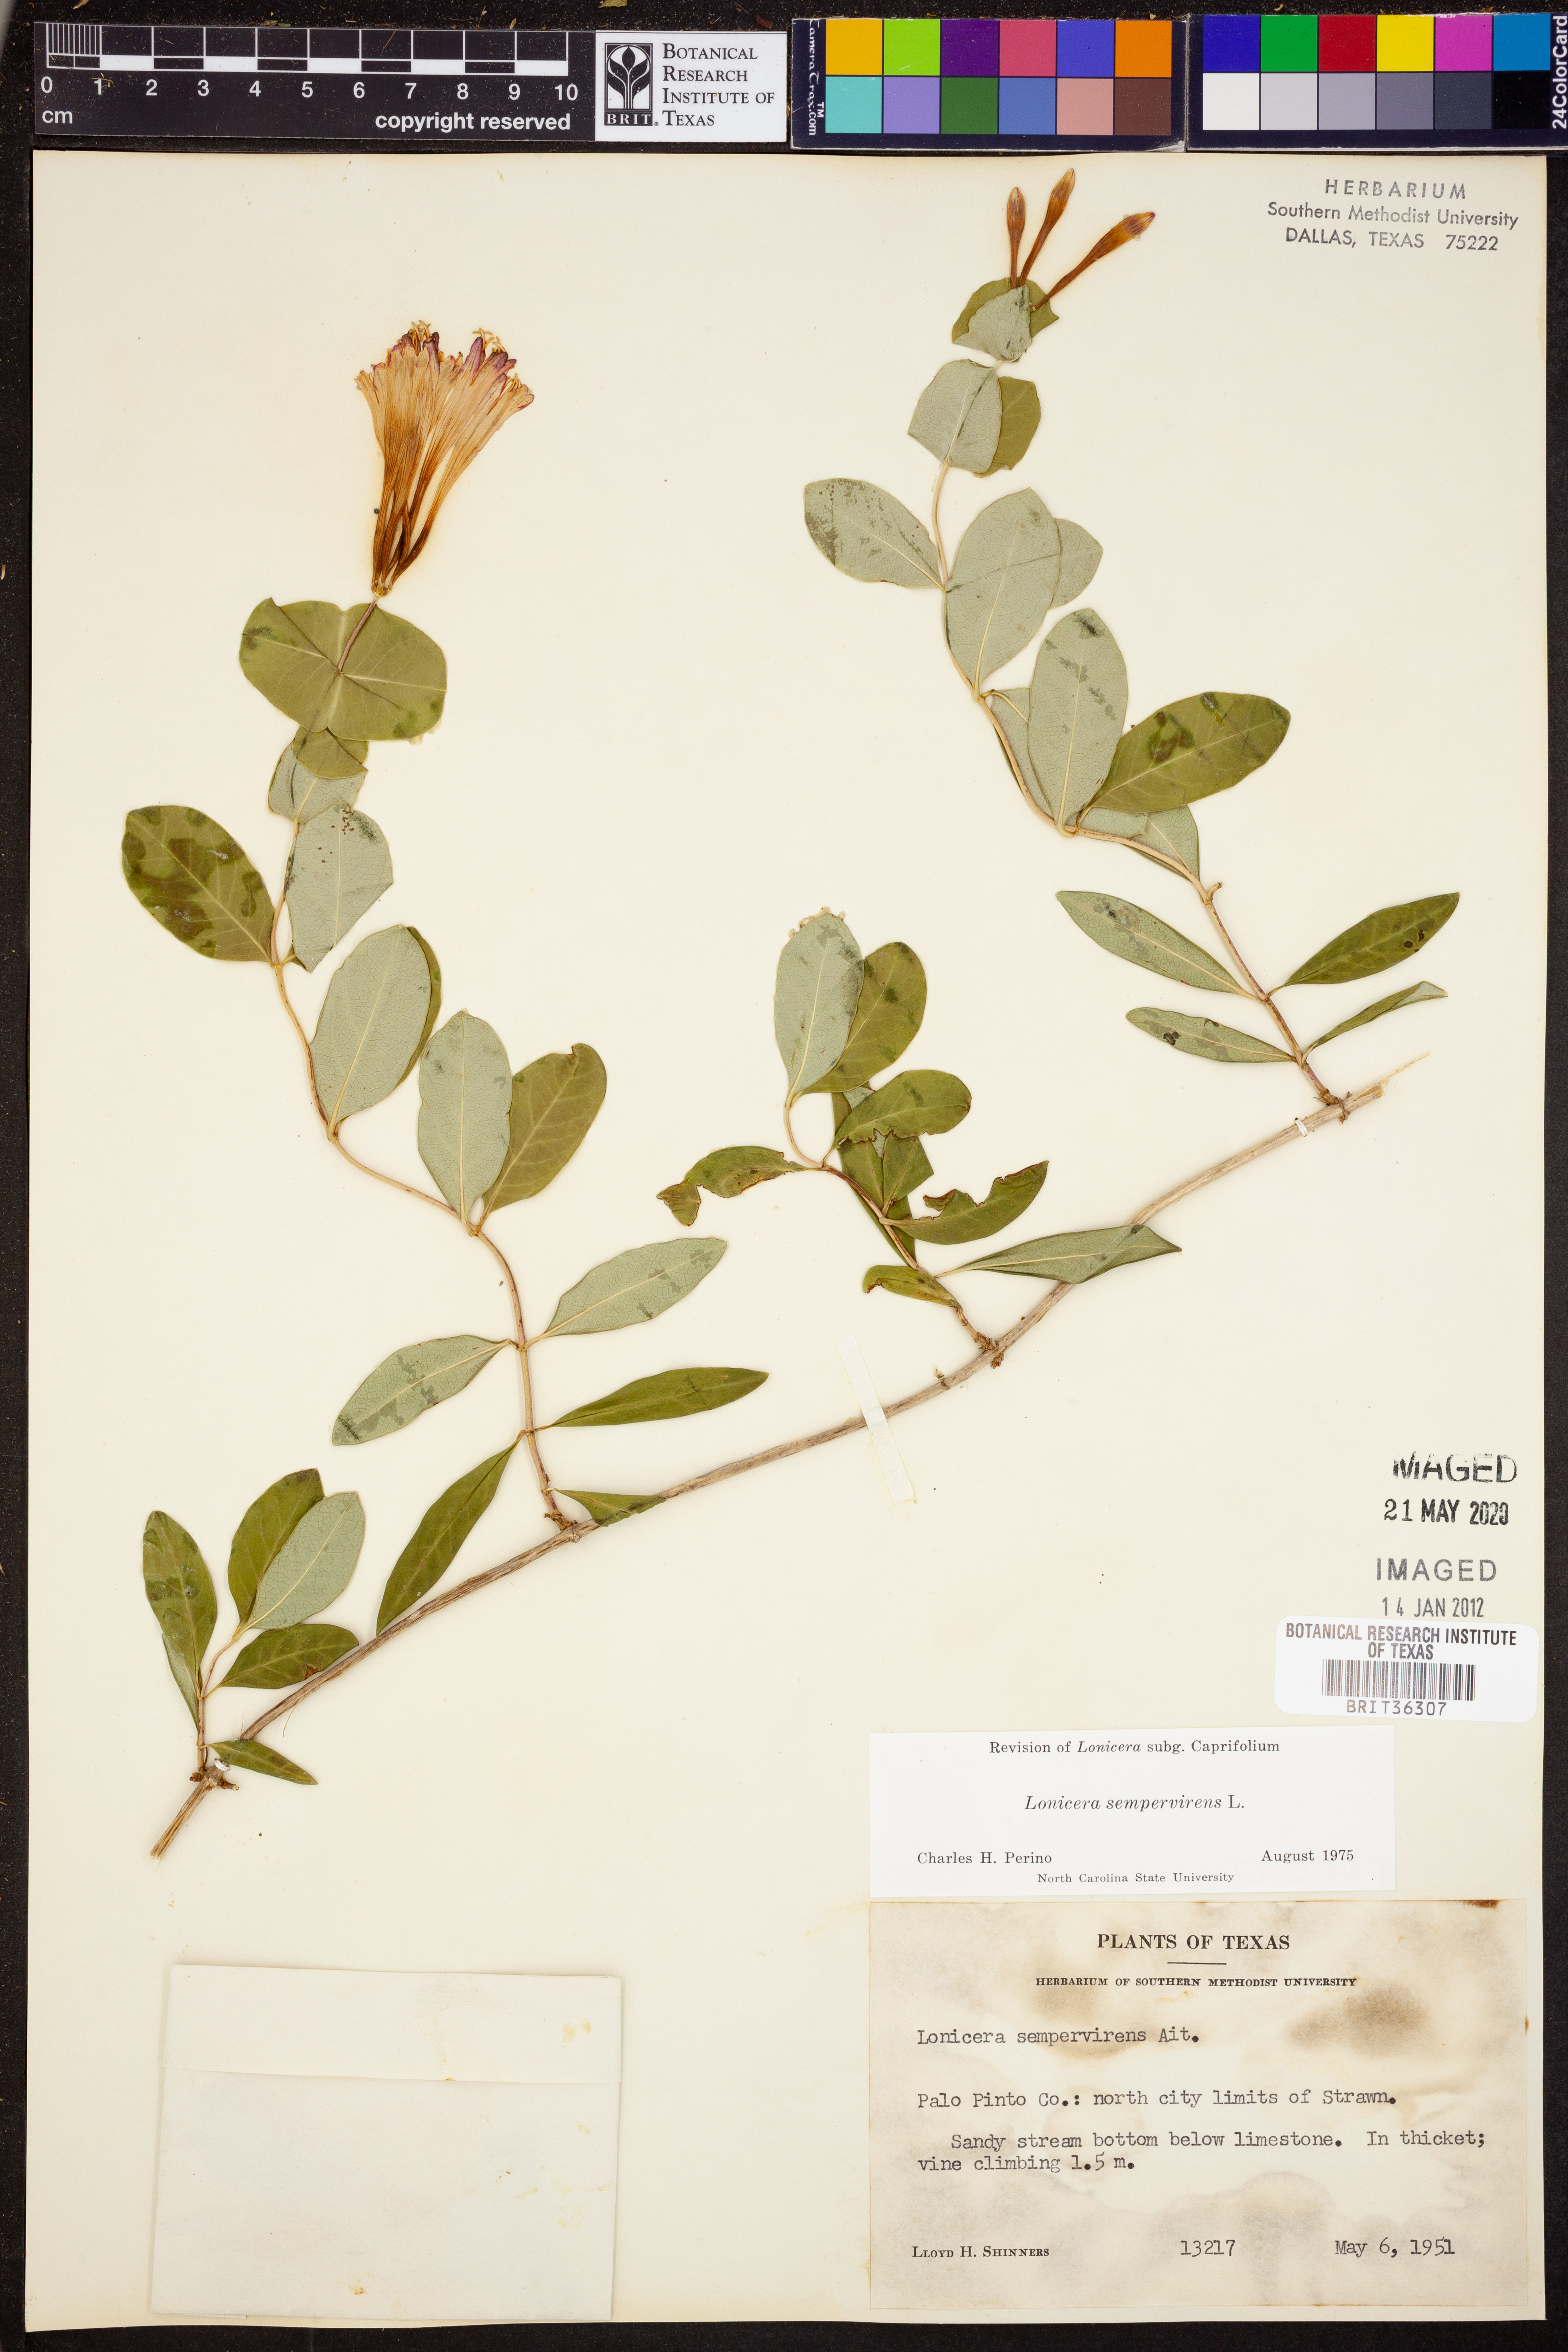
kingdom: Plantae
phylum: Tracheophyta
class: Magnoliopsida
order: Dipsacales
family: Caprifoliaceae
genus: Lonicera
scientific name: Lonicera sempervirens
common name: Coral honeysuckle
